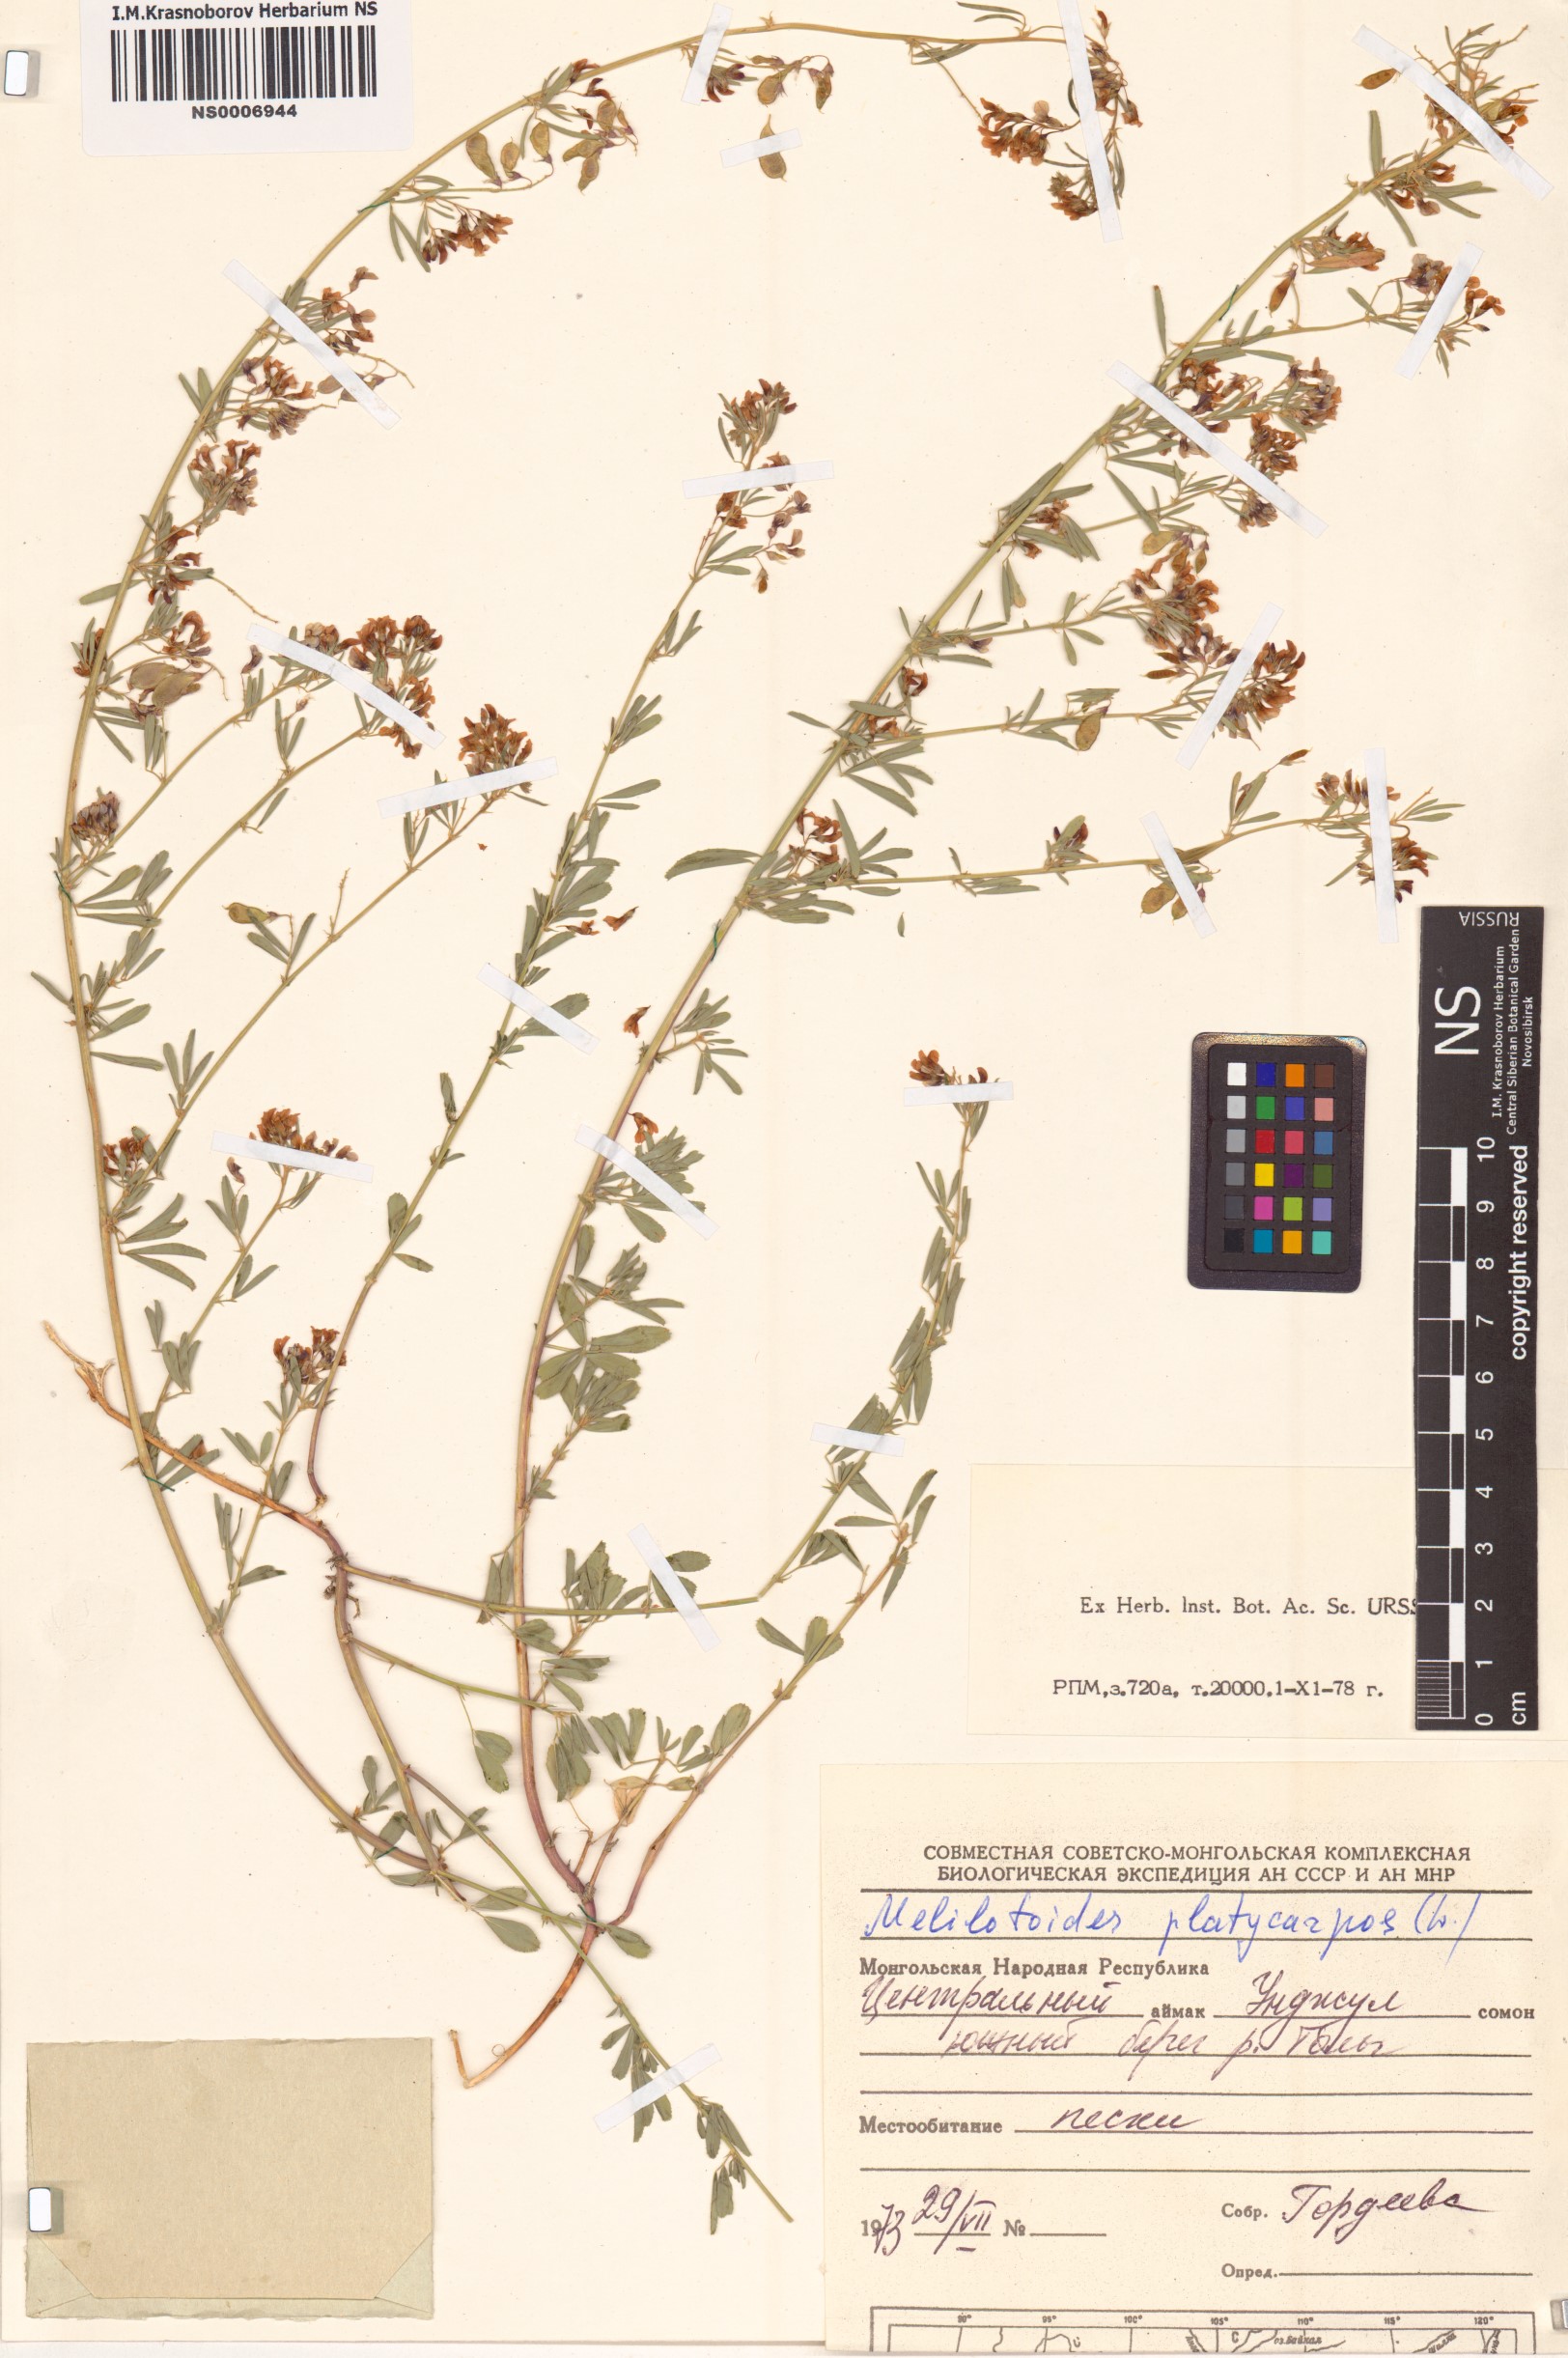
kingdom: Plantae
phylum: Tracheophyta
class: Magnoliopsida
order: Fabales
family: Fabaceae
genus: Medicago
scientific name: Medicago platycarpos
